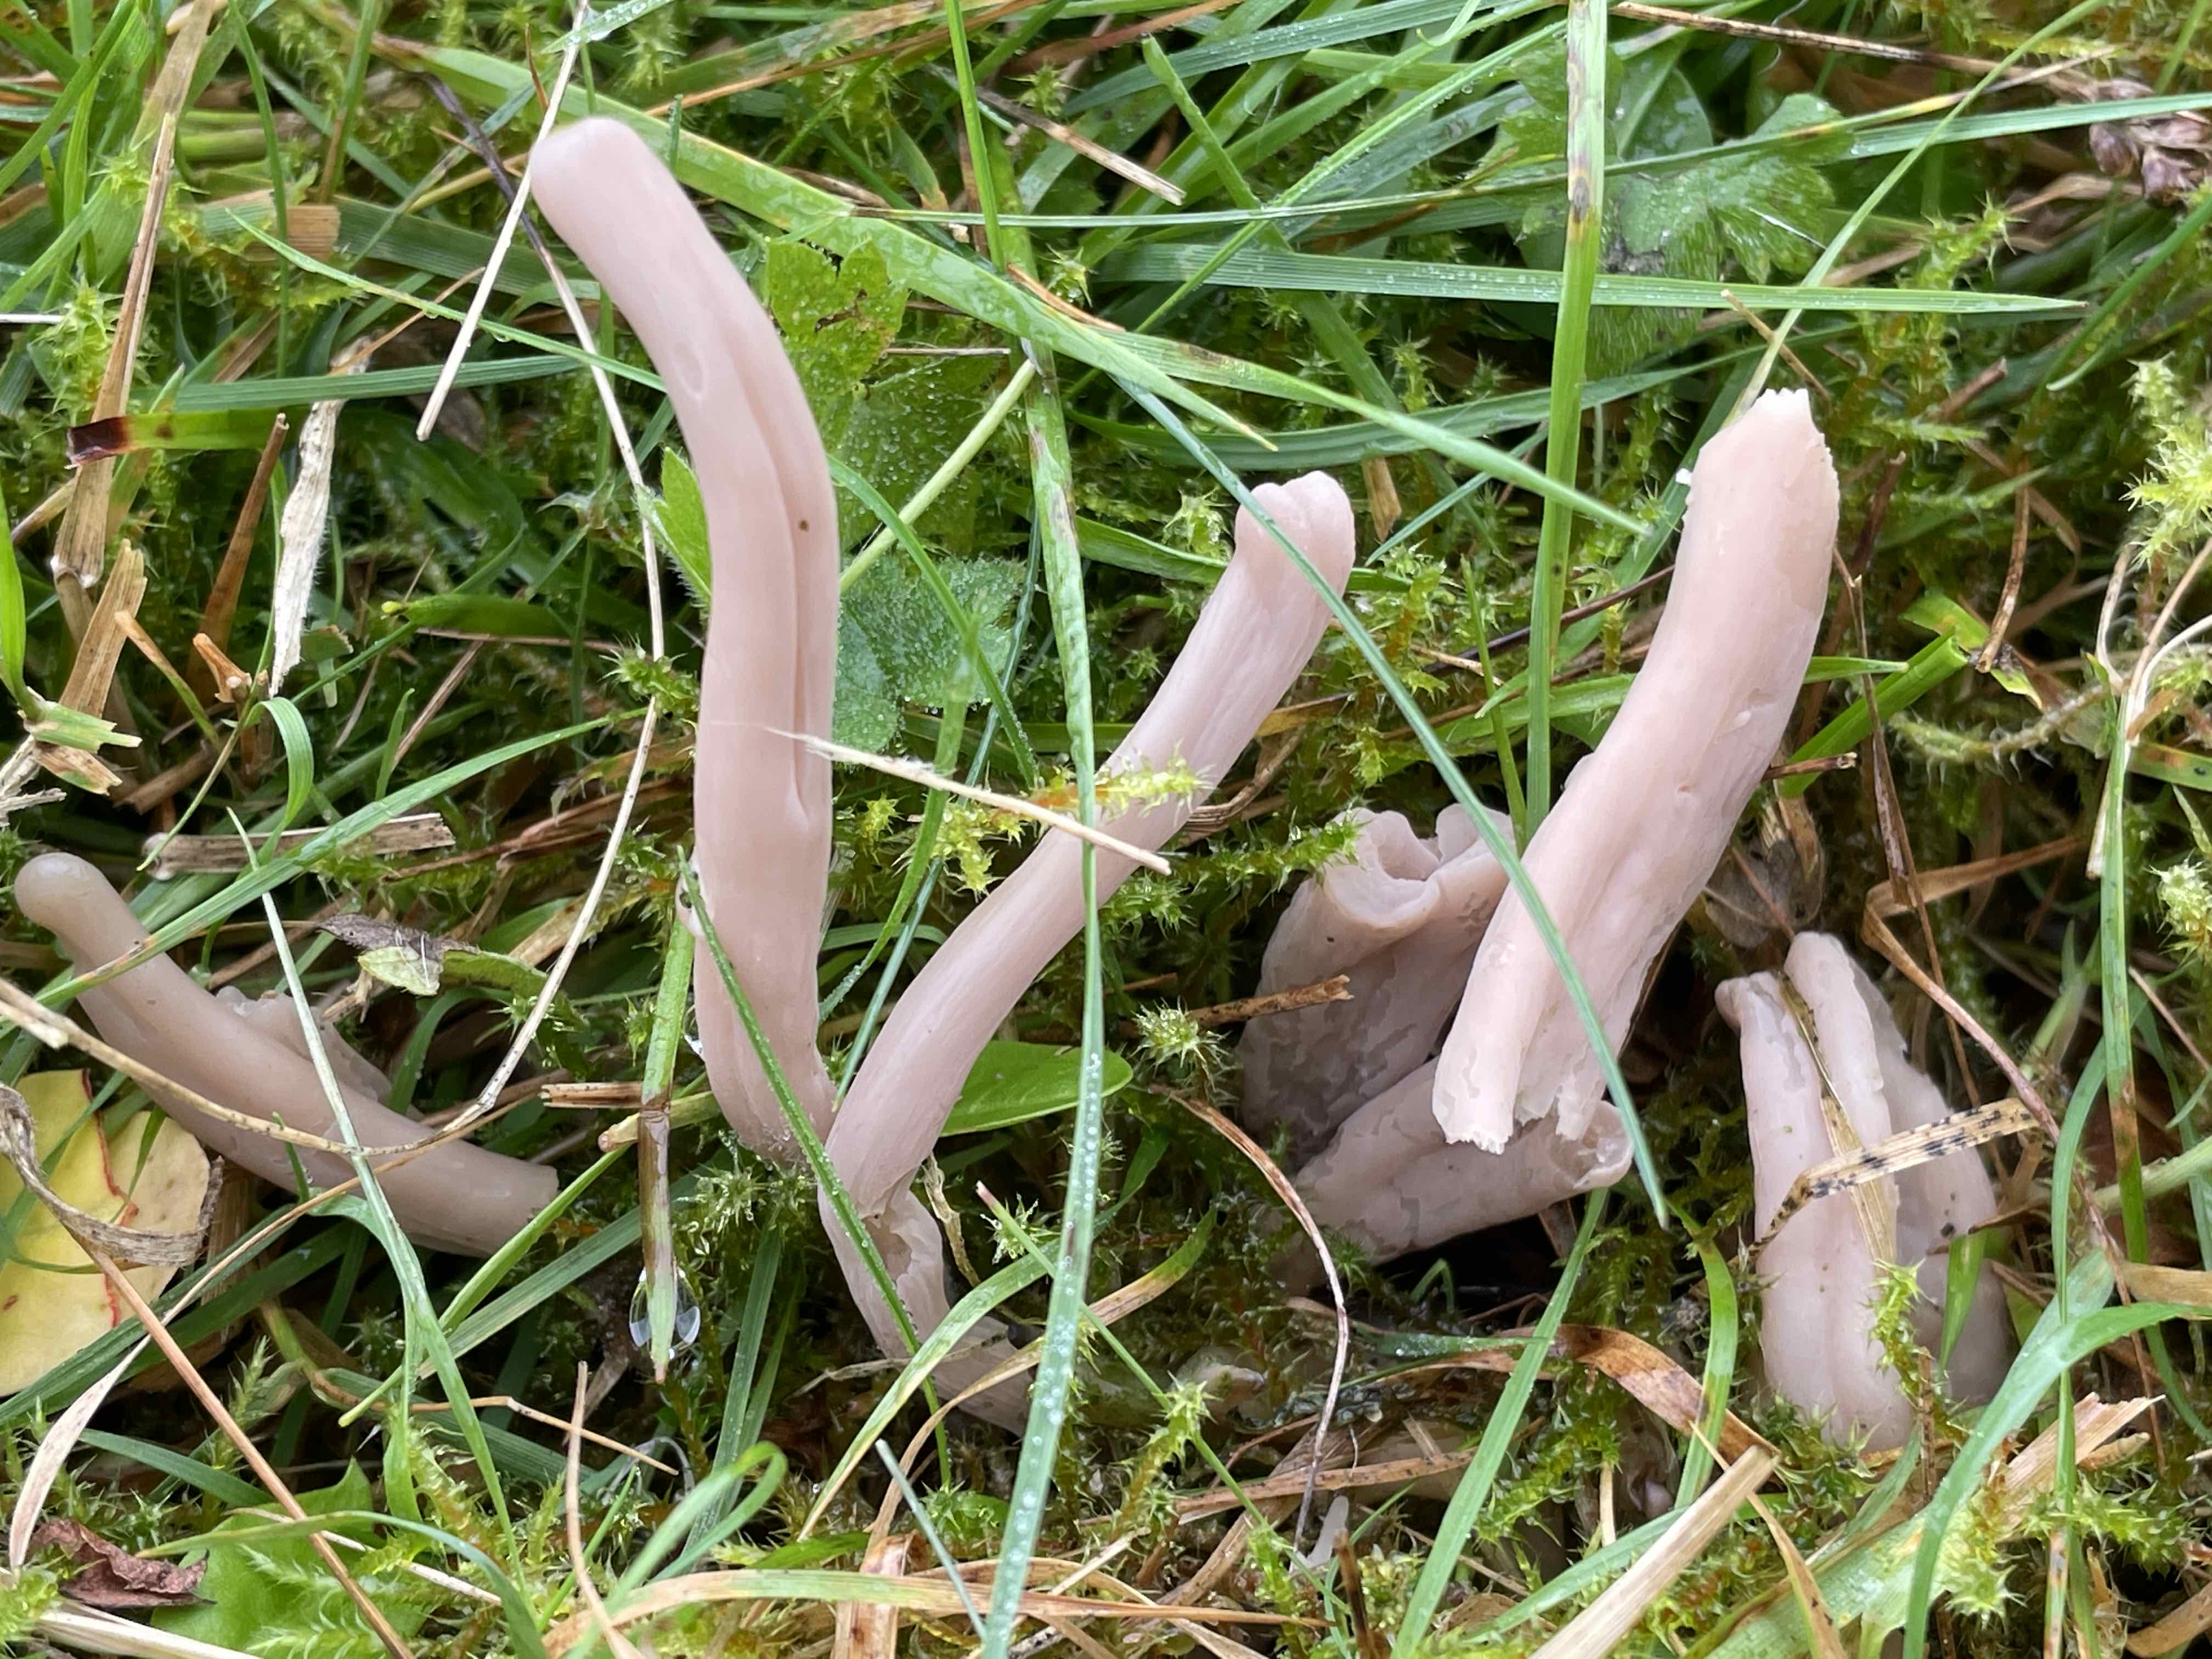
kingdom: Fungi
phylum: Basidiomycota
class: Agaricomycetes
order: Agaricales
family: Clavariaceae
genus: Clavaria
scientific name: Clavaria fumosa
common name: røggrå køllesvamp
